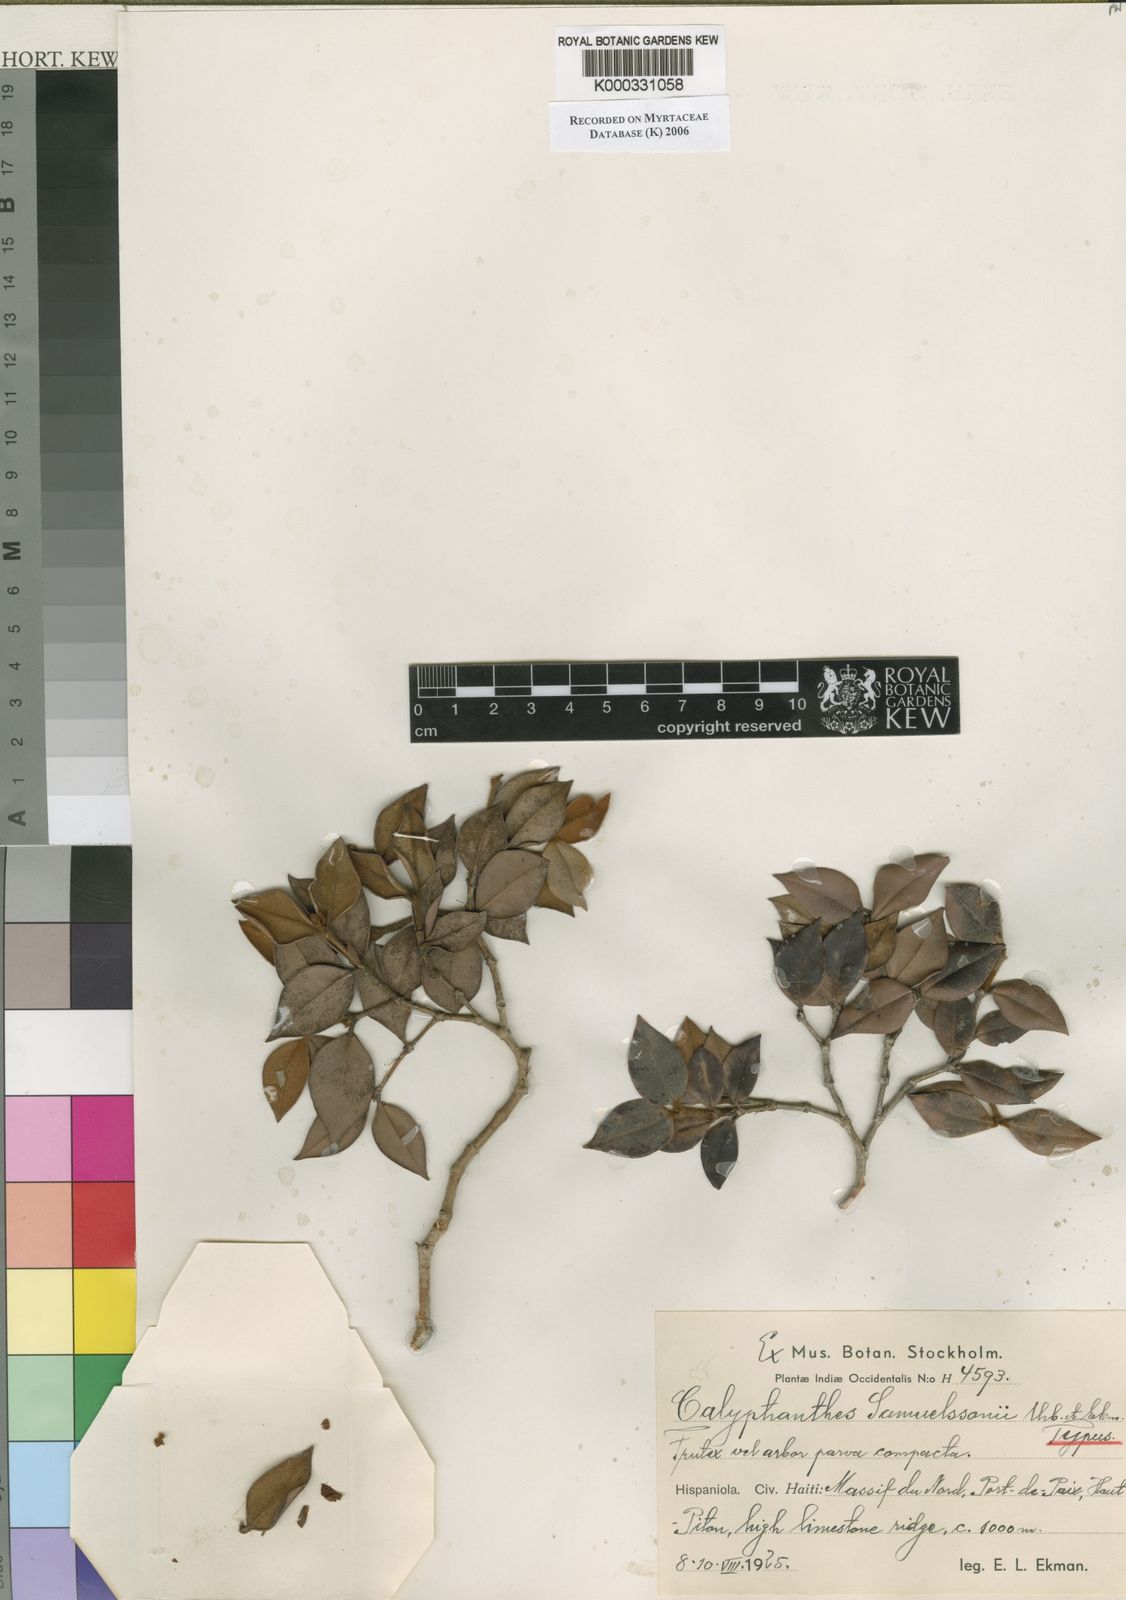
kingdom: Plantae
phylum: Tracheophyta
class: Magnoliopsida
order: Myrtales
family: Myrtaceae
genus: Myrcia
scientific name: Myrcia samuelssonii
